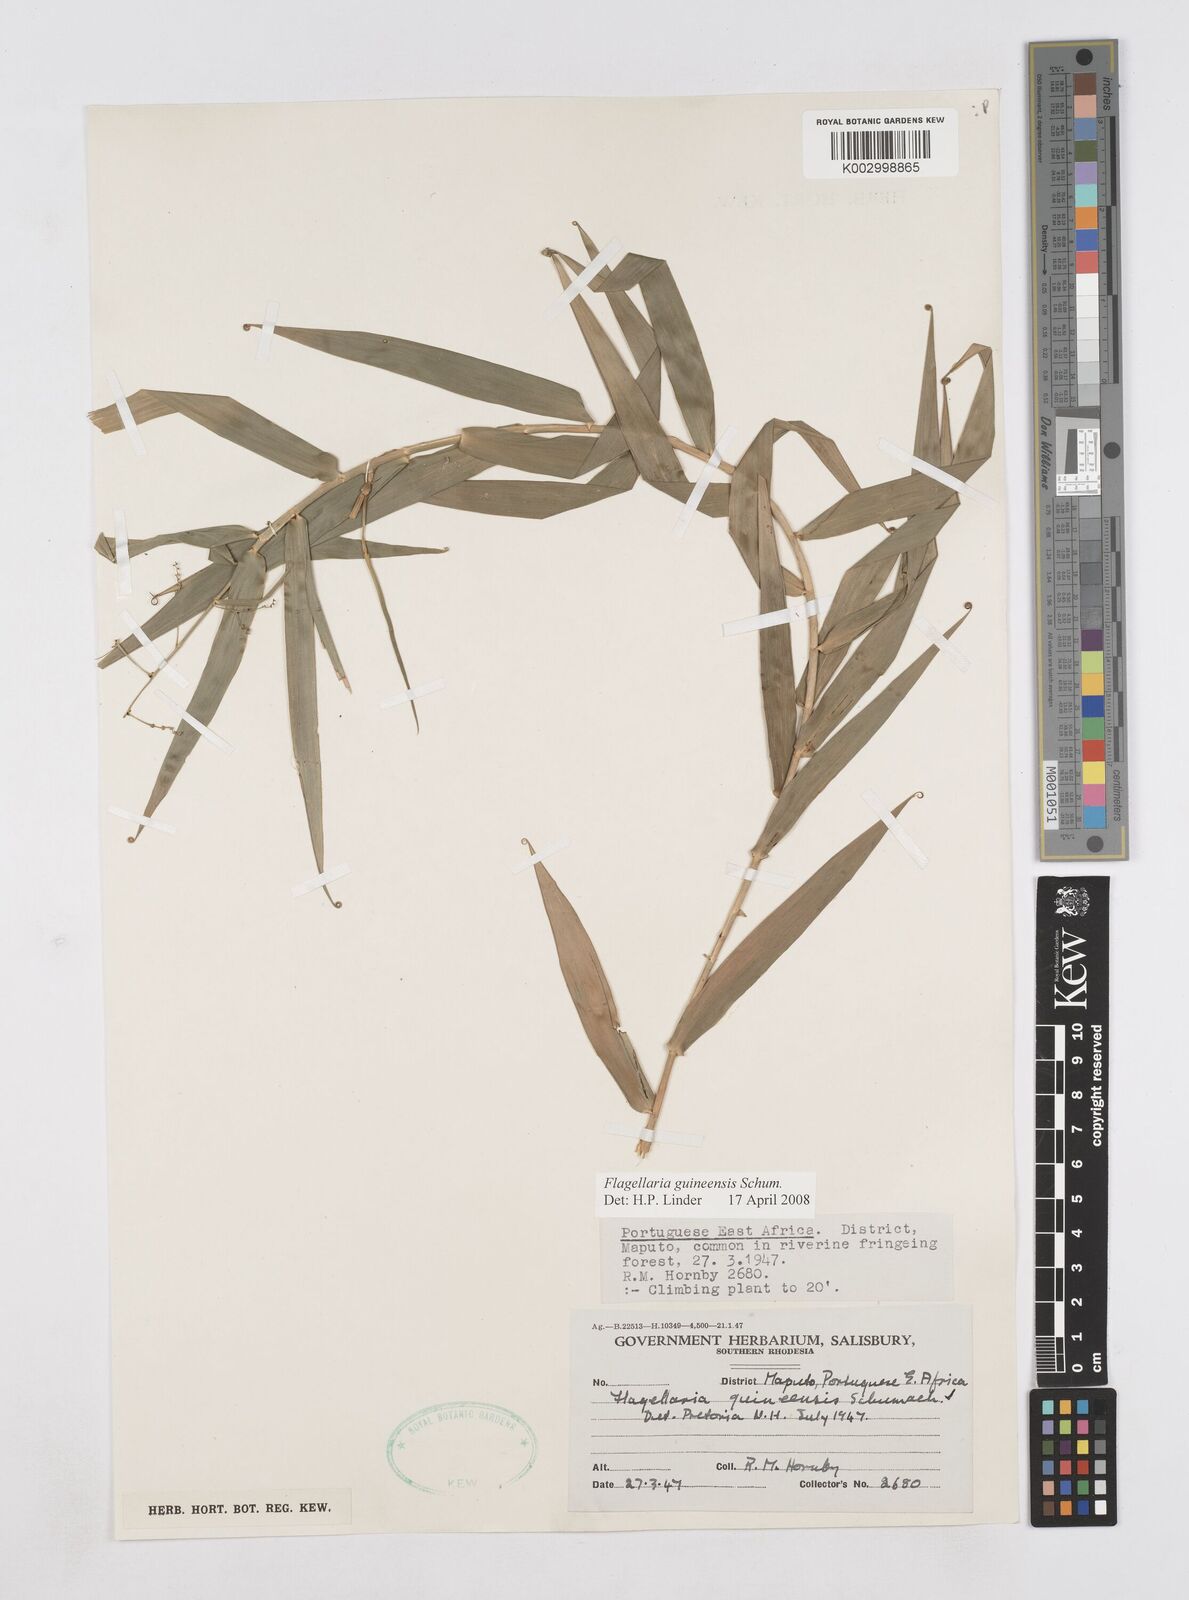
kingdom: Plantae
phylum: Tracheophyta
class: Liliopsida
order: Poales
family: Flagellariaceae
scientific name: Flagellariaceae
